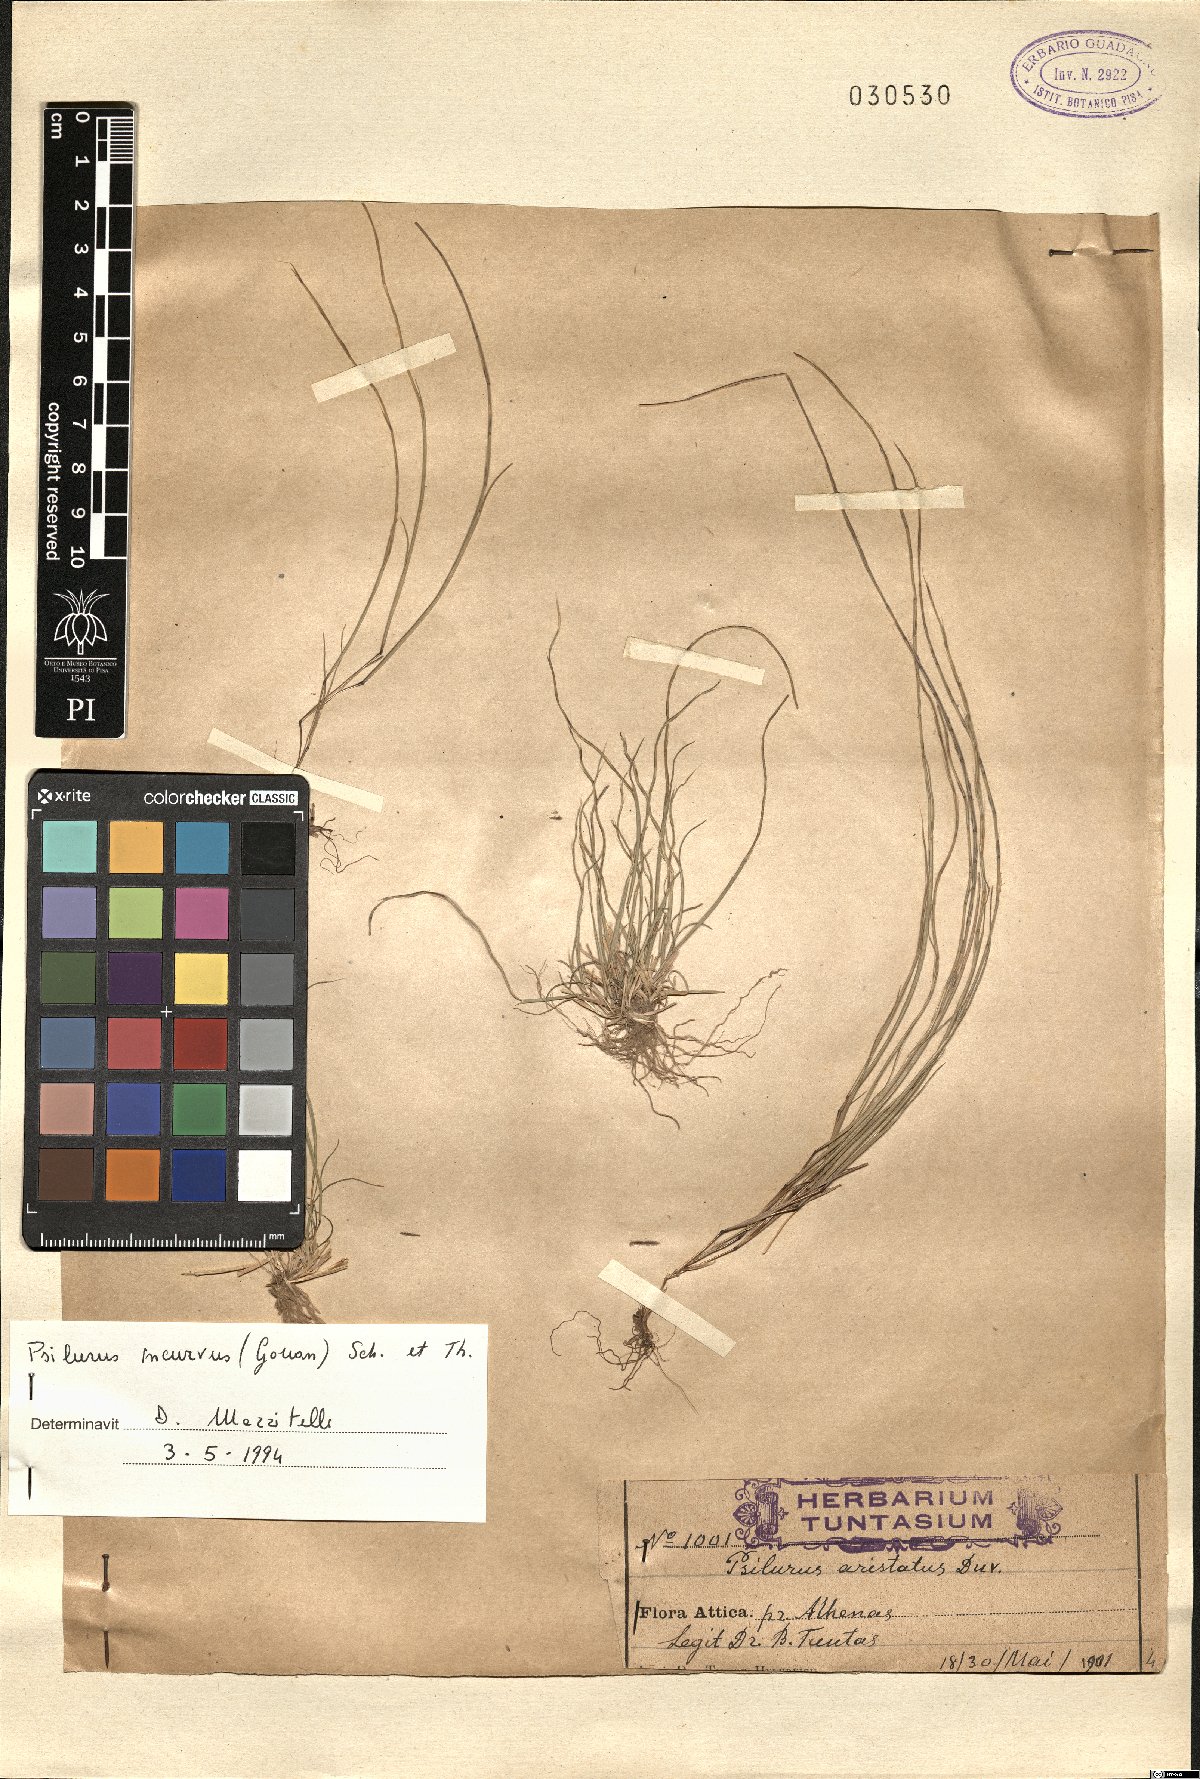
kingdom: Plantae
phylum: Tracheophyta
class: Liliopsida
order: Poales
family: Poaceae
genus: Festuca
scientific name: Festuca incurva
